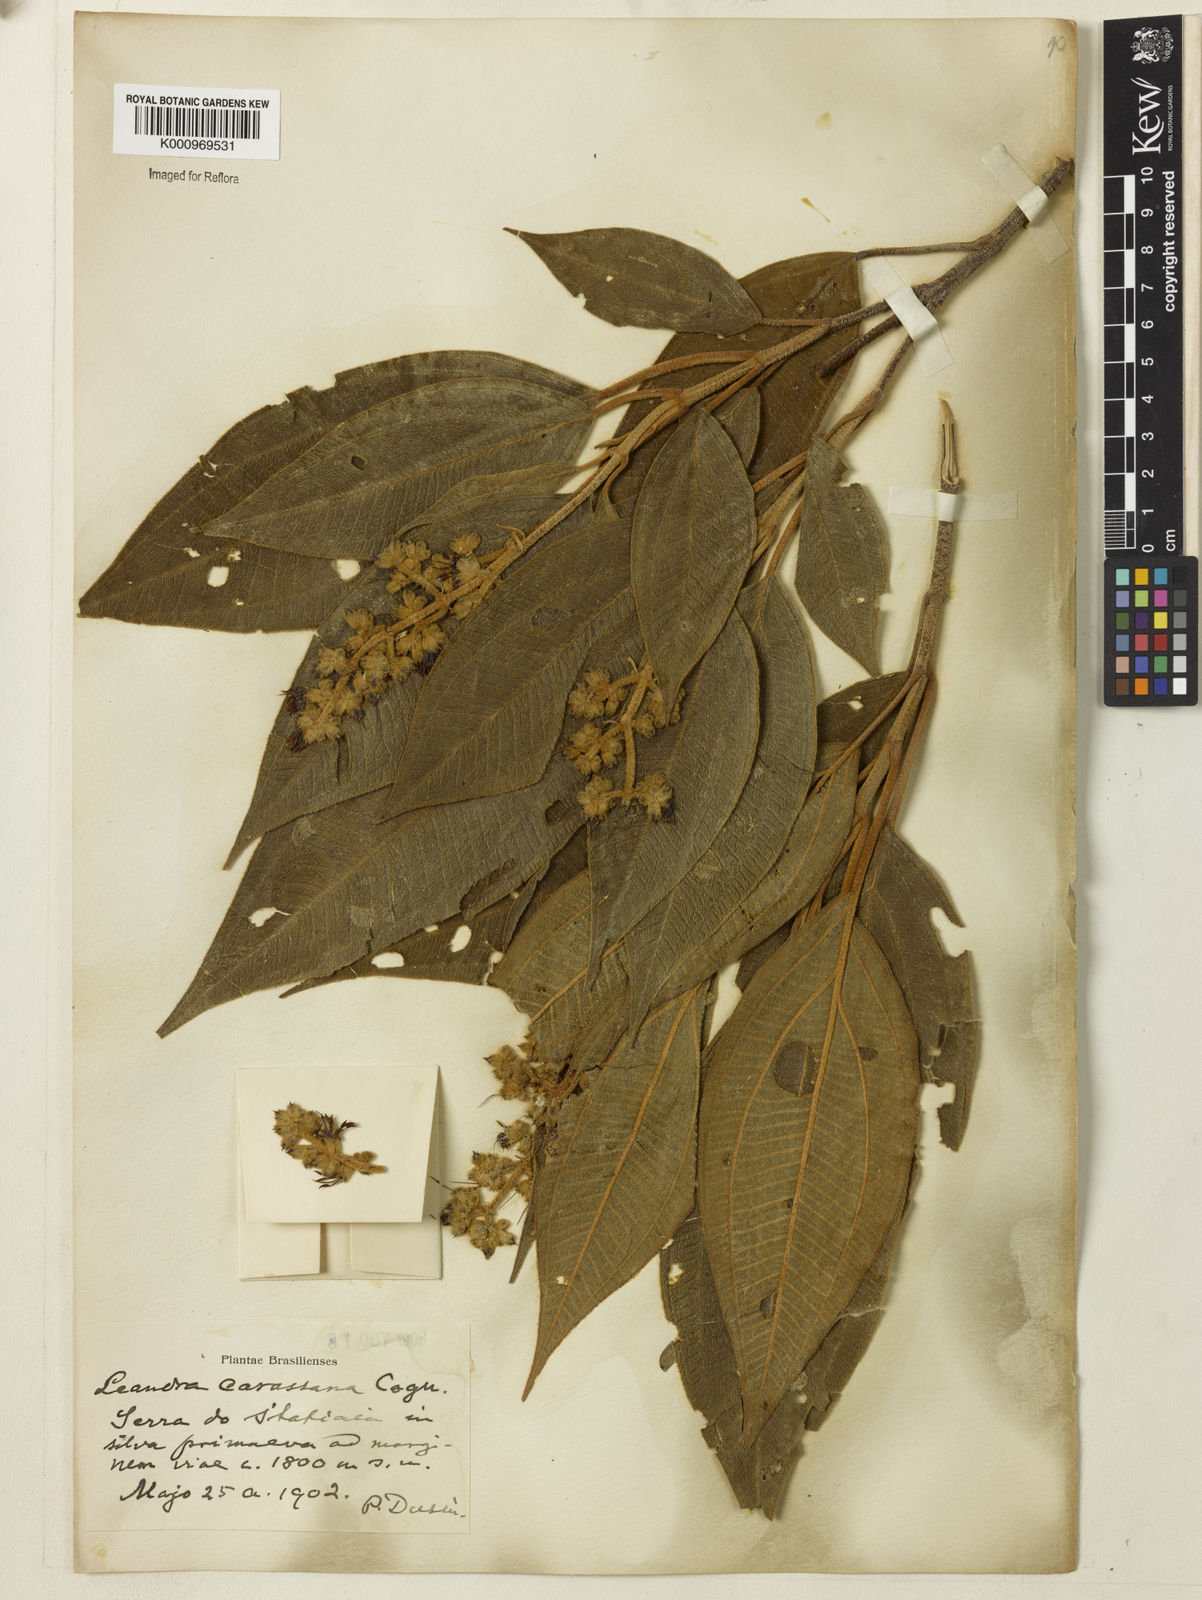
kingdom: Plantae
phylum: Tracheophyta
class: Magnoliopsida
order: Myrtales
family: Melastomataceae
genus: Miconia
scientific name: Miconia sublanata
